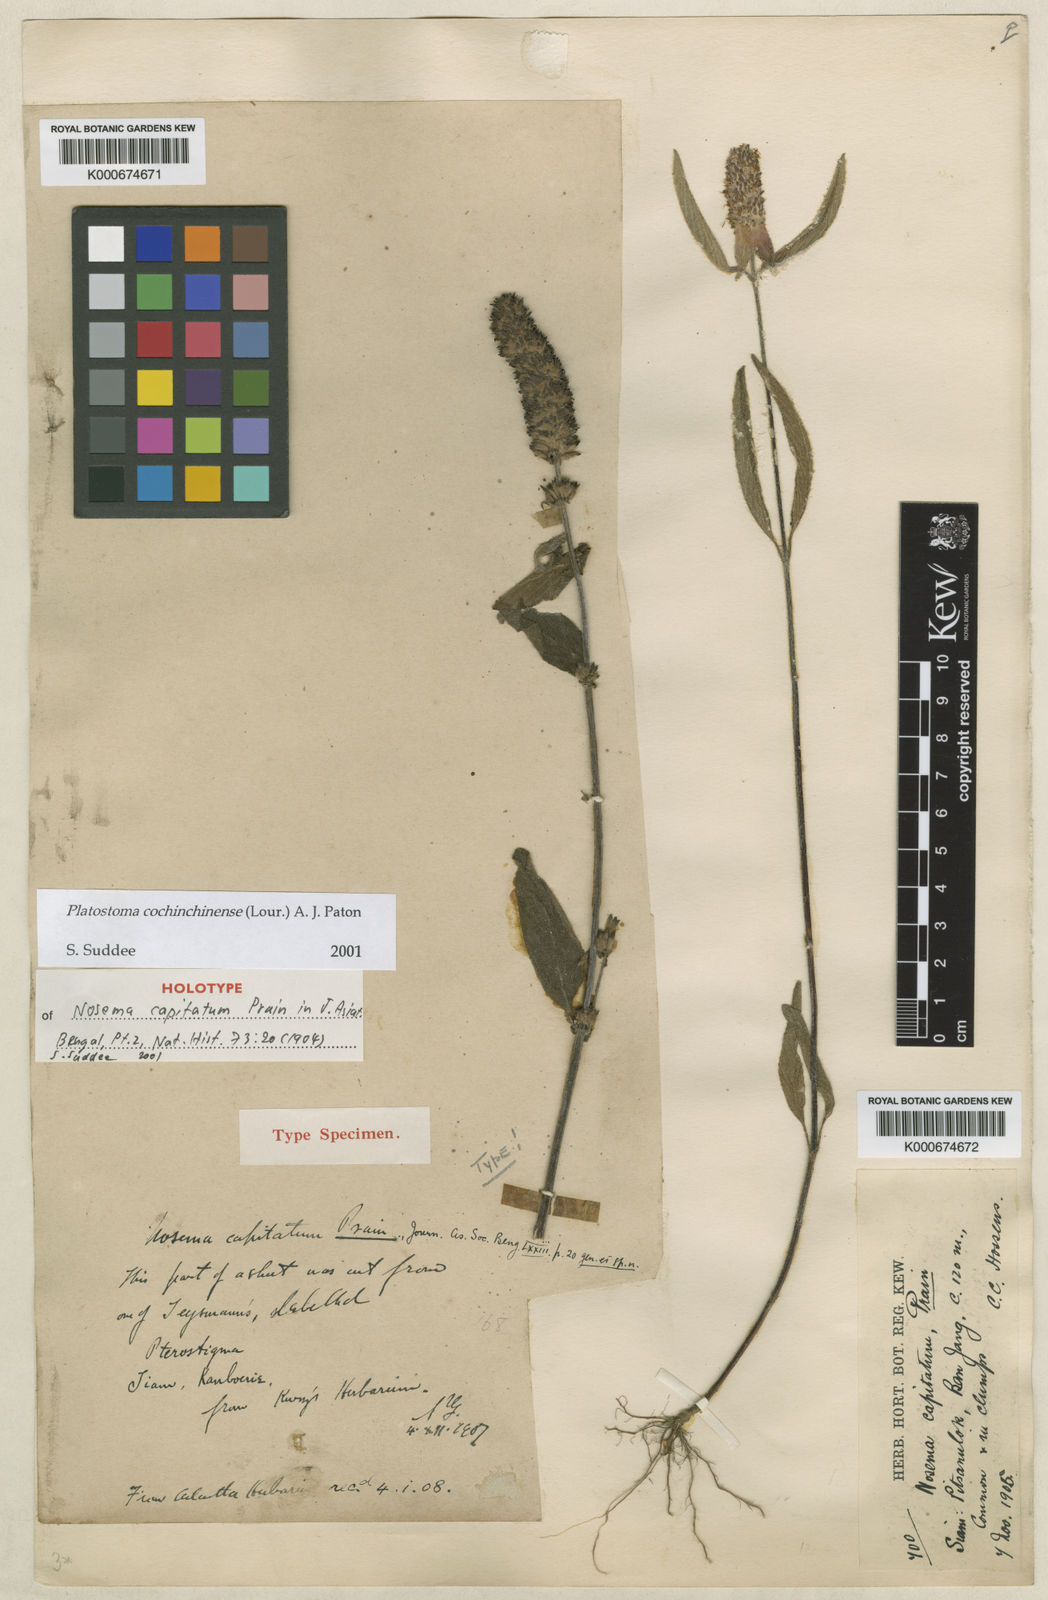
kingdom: Plantae
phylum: Tracheophyta
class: Magnoliopsida
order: Lamiales
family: Lamiaceae
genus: Platostoma
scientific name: Platostoma cochinchinense
